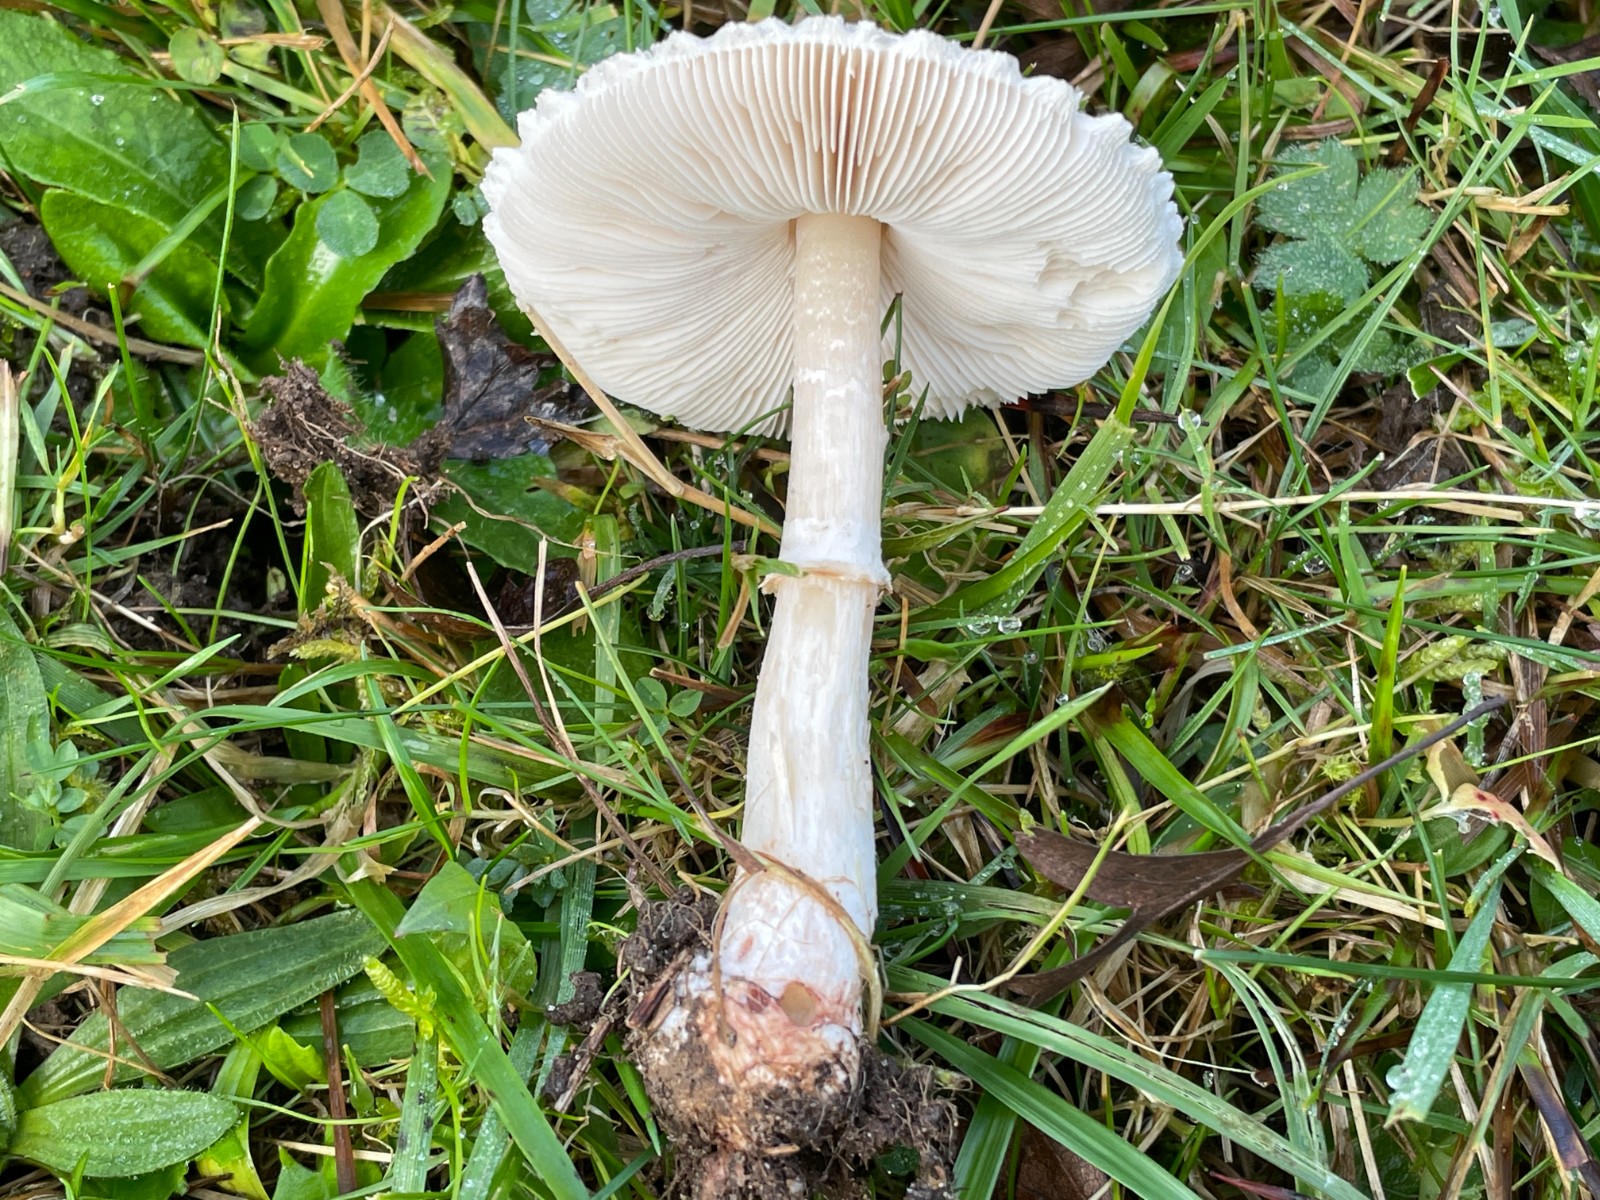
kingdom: Fungi
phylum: Basidiomycota
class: Agaricomycetes
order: Agaricales
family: Agaricaceae
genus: Macrolepiota
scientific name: Macrolepiota excoriata
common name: mark-kæmpeparasolhat
